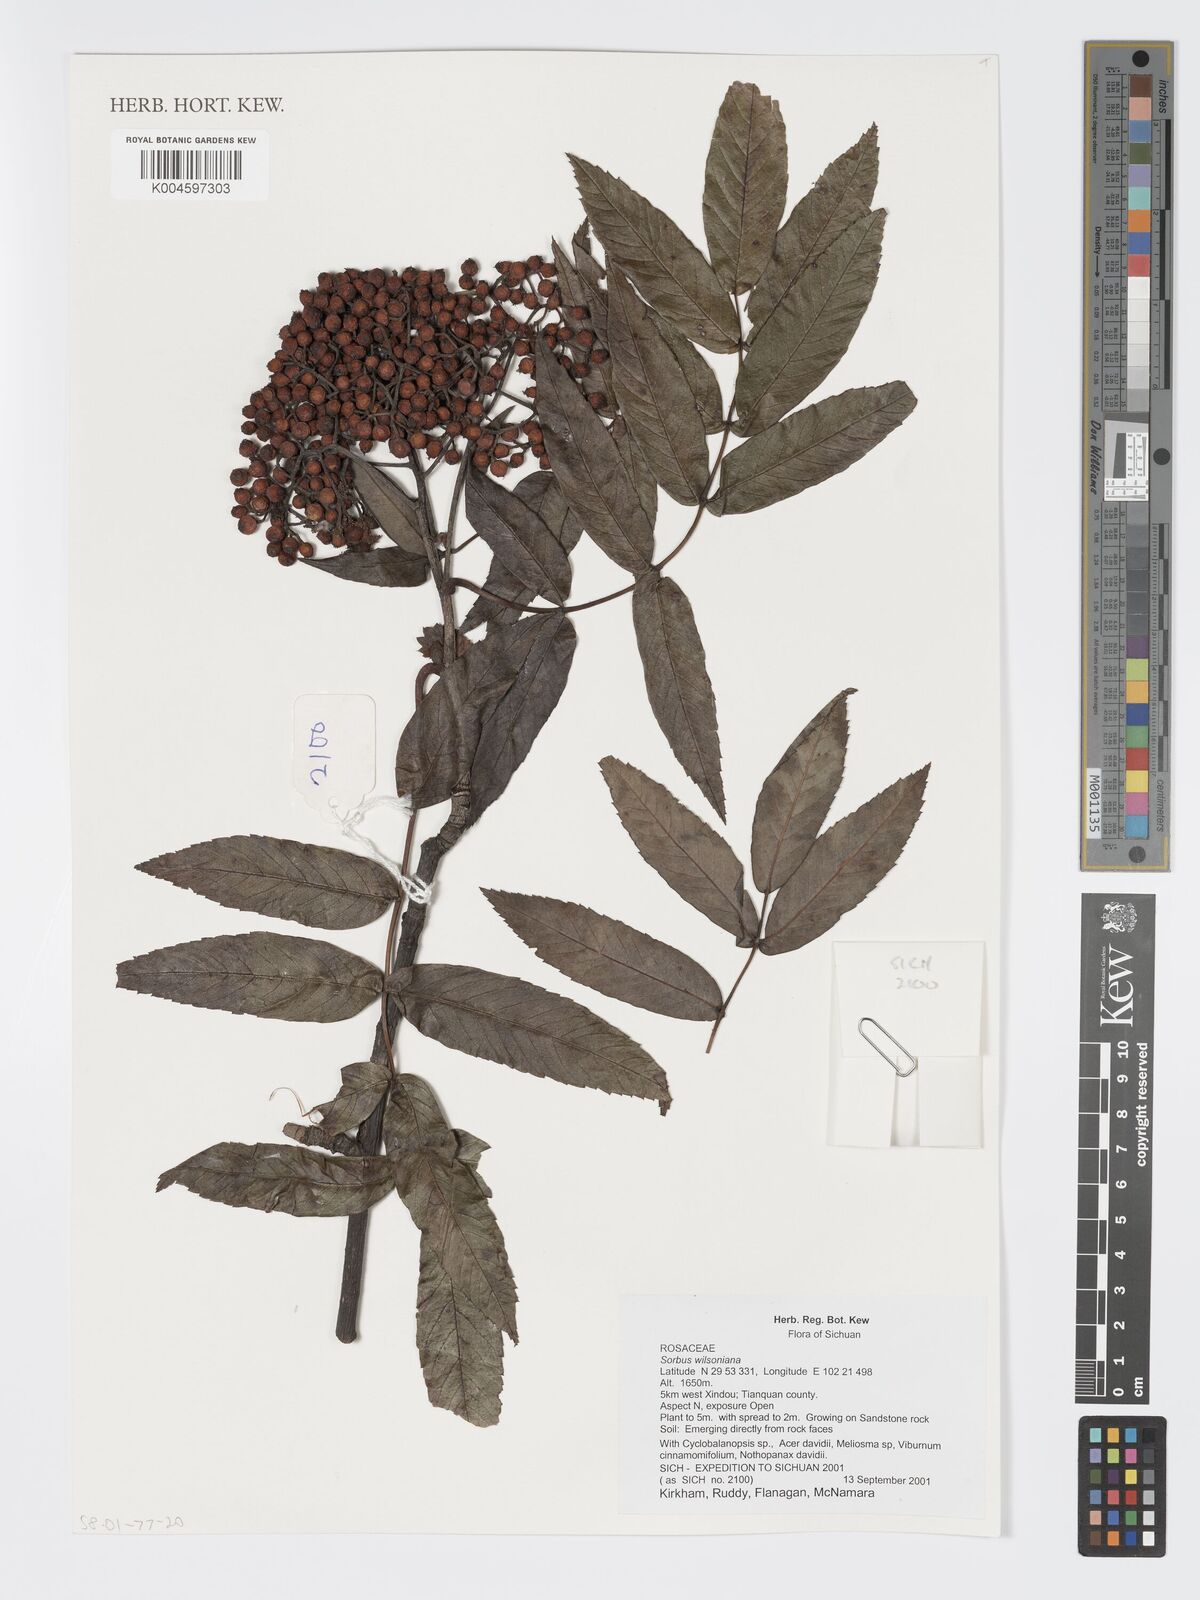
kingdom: Plantae
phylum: Tracheophyta
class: Magnoliopsida
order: Rosales
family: Rosaceae
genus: Sorbus
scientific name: Sorbus wilsoniana
